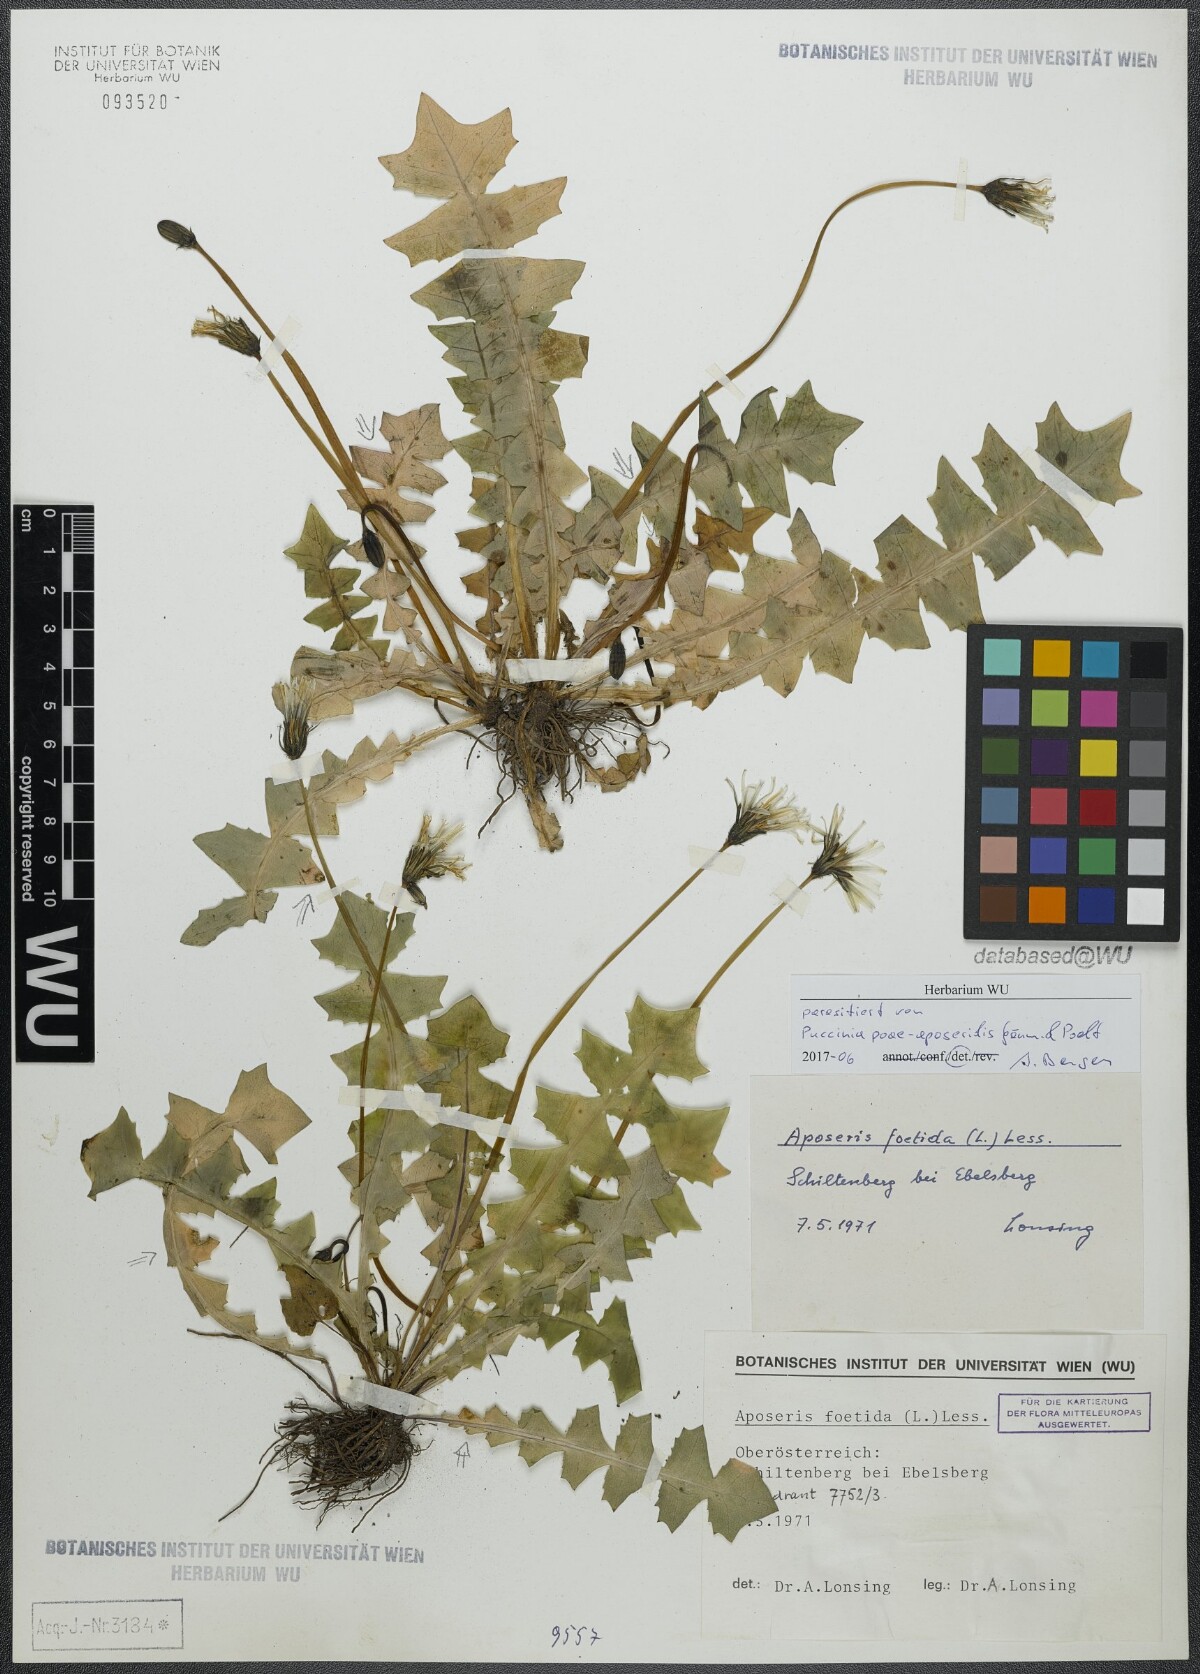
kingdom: Plantae
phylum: Tracheophyta
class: Magnoliopsida
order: Asterales
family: Asteraceae
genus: Aposeris
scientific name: Aposeris foetida
